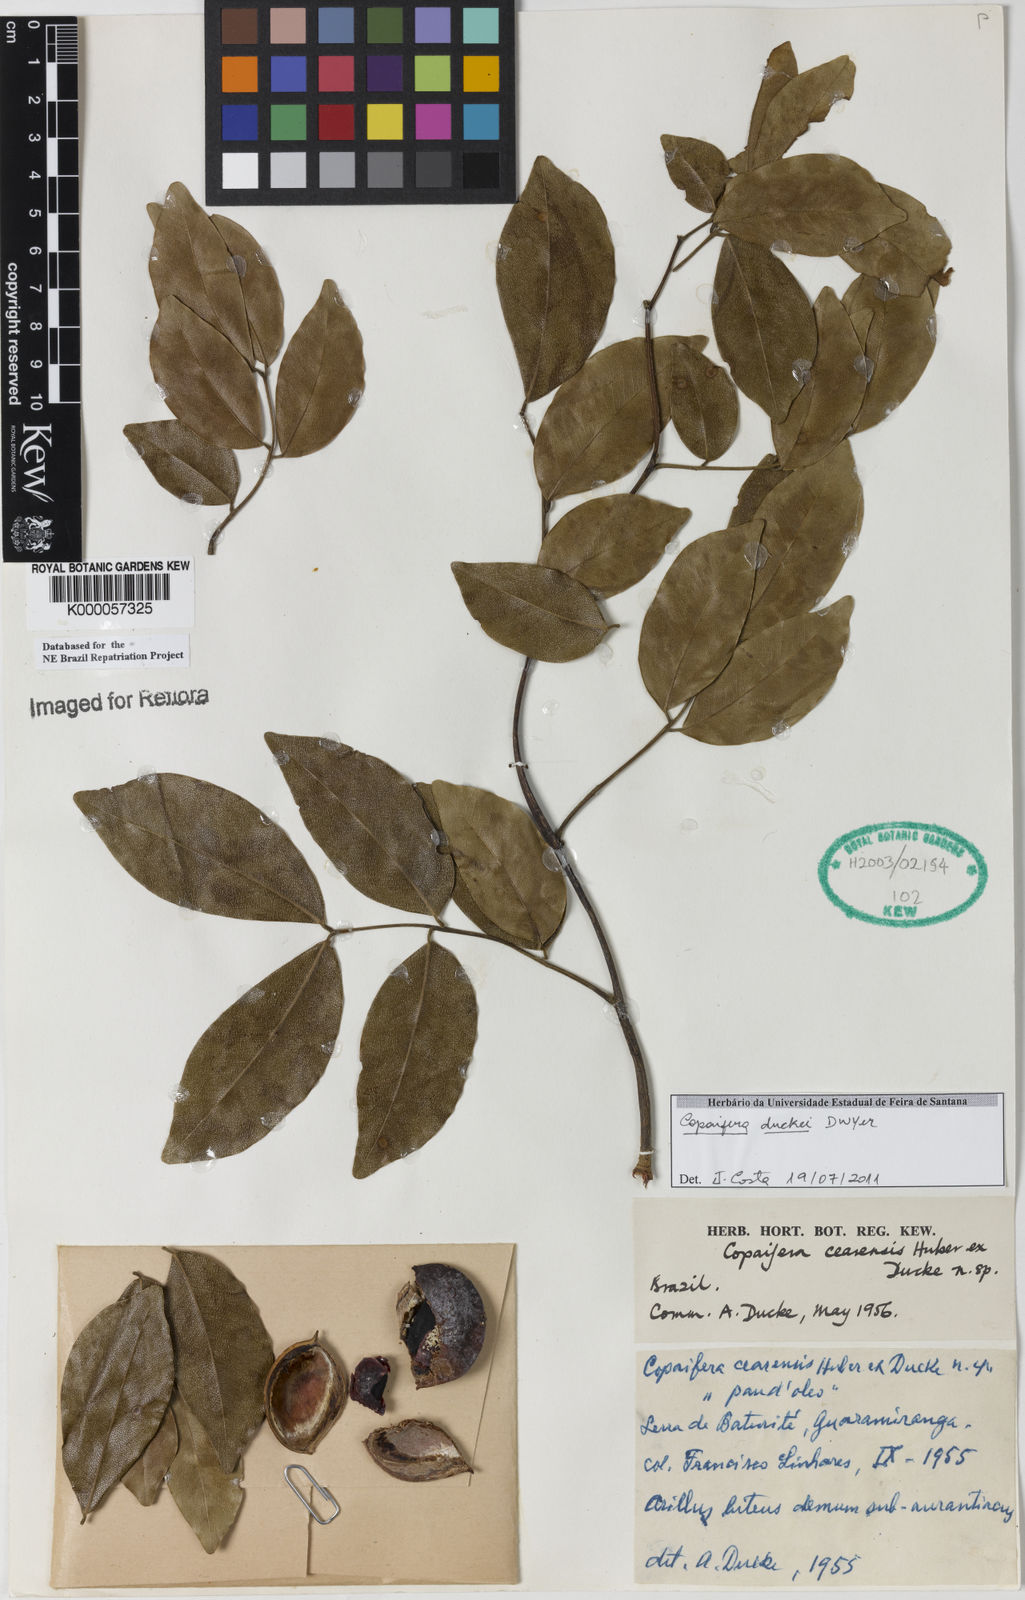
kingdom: Plantae
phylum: Tracheophyta
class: Magnoliopsida
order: Fabales
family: Fabaceae
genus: Copaifera
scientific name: Copaifera duckei
